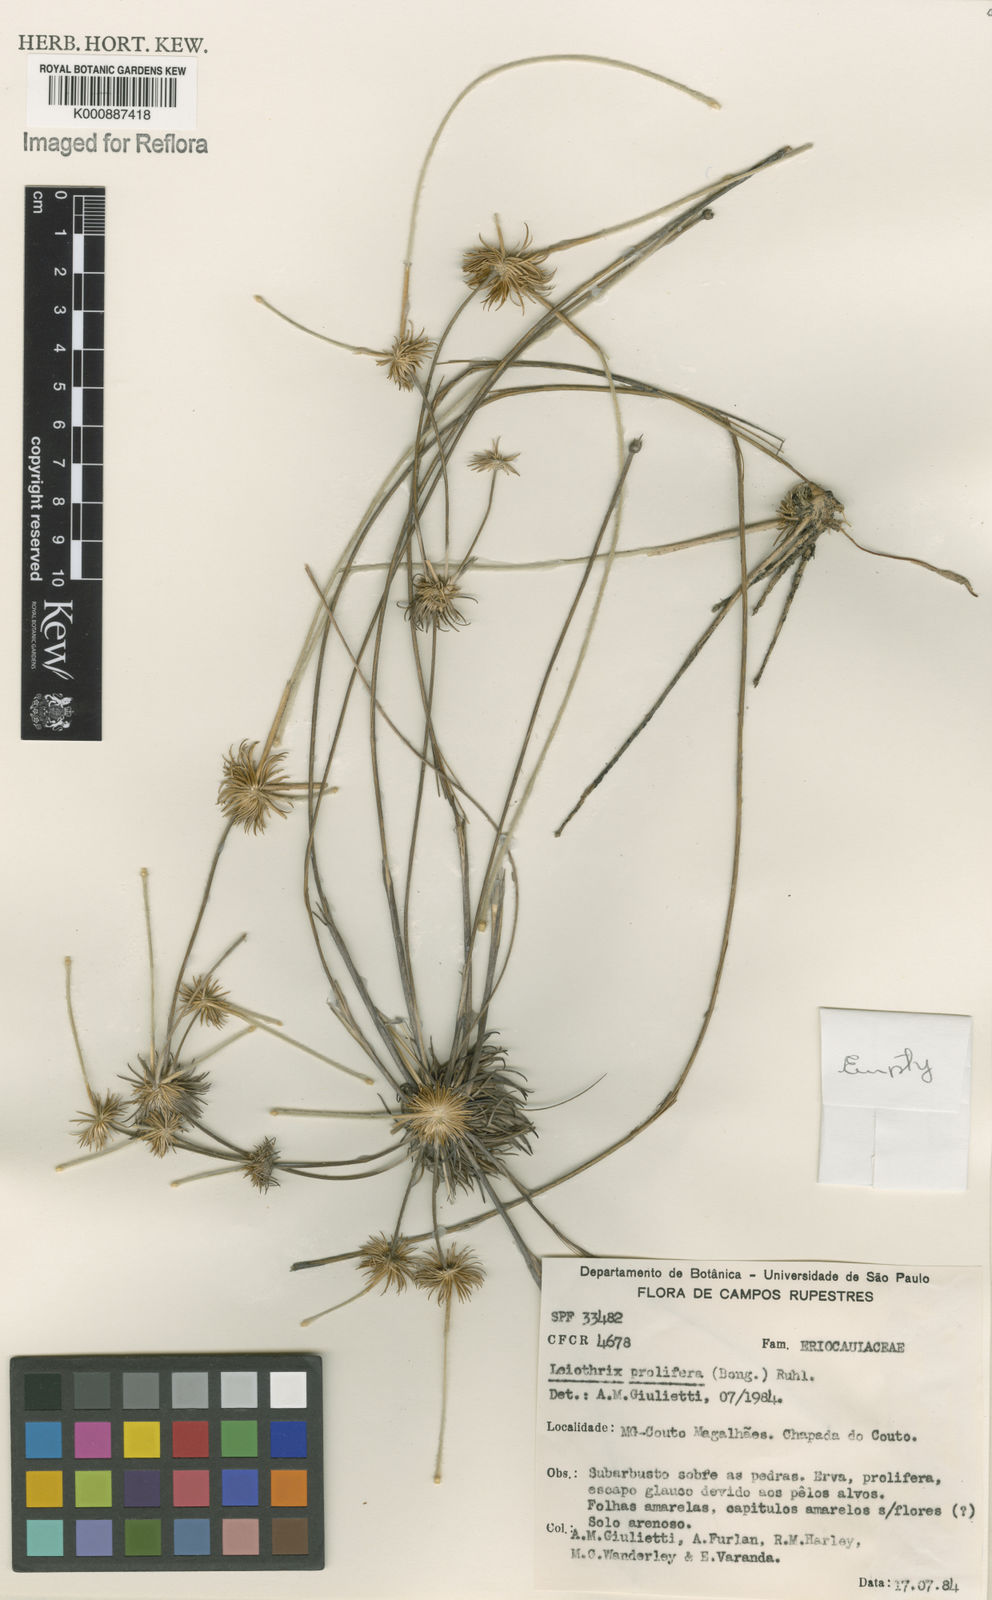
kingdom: Plantae
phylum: Tracheophyta
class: Liliopsida
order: Poales
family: Eriocaulaceae
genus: Leiothrix
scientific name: Leiothrix prolifera
